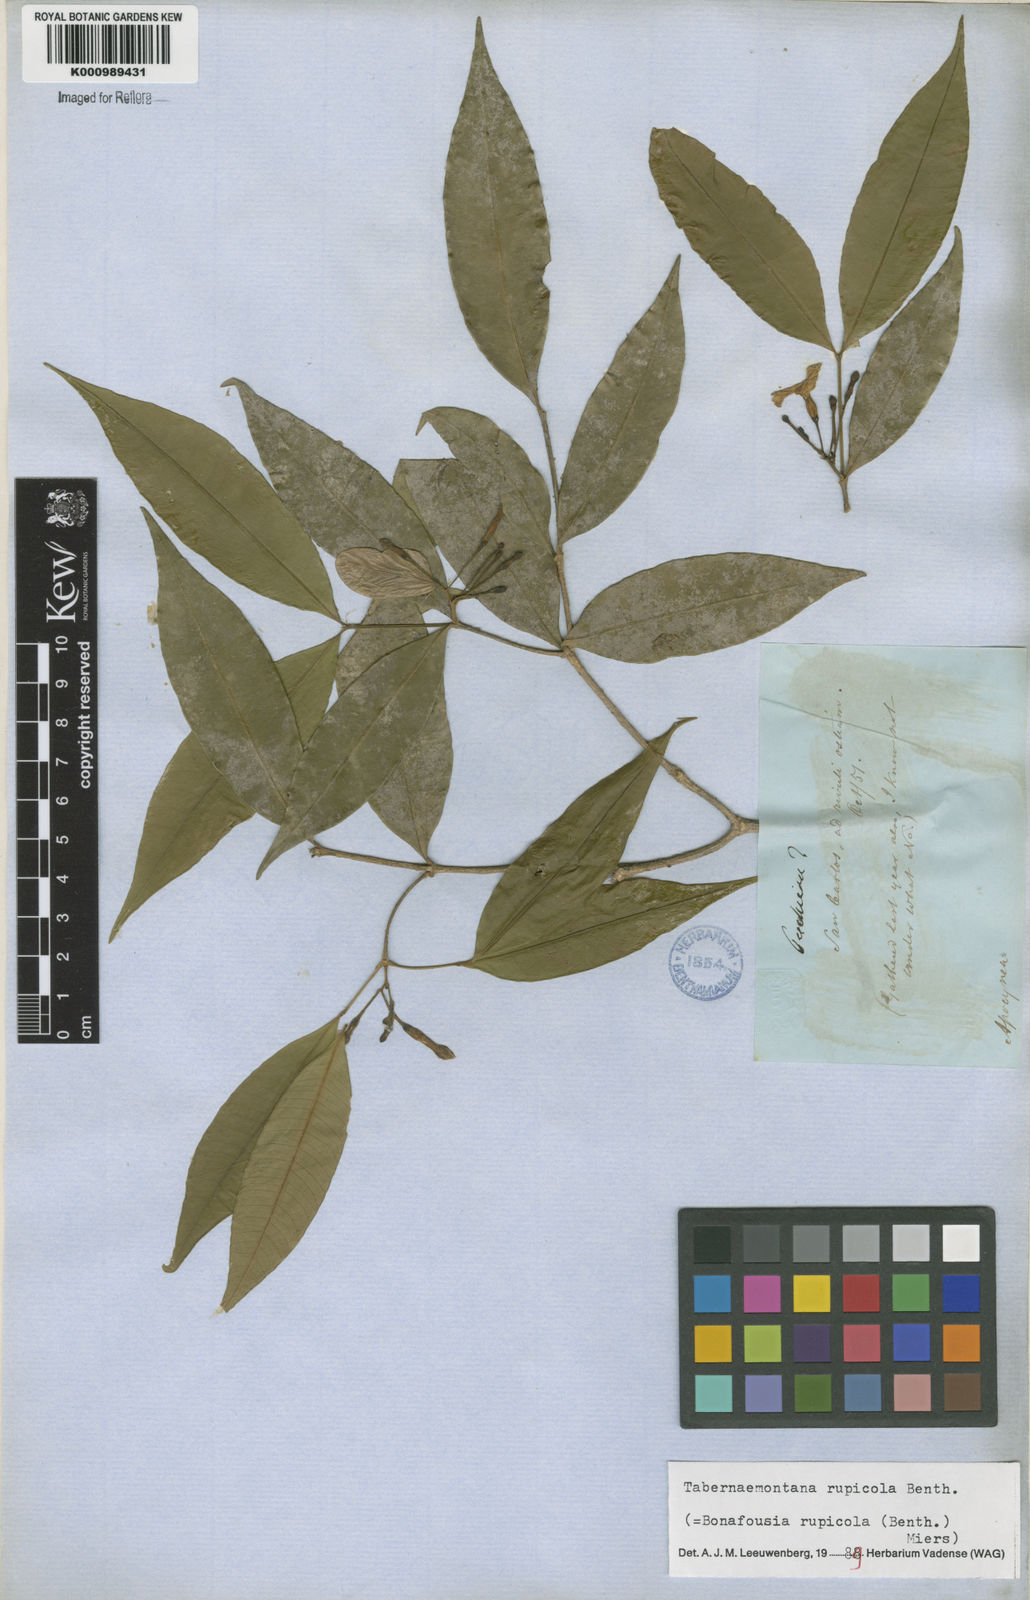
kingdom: Plantae
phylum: Tracheophyta
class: Magnoliopsida
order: Gentianales
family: Apocynaceae
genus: Tabernaemontana
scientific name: Tabernaemontana rupicola
